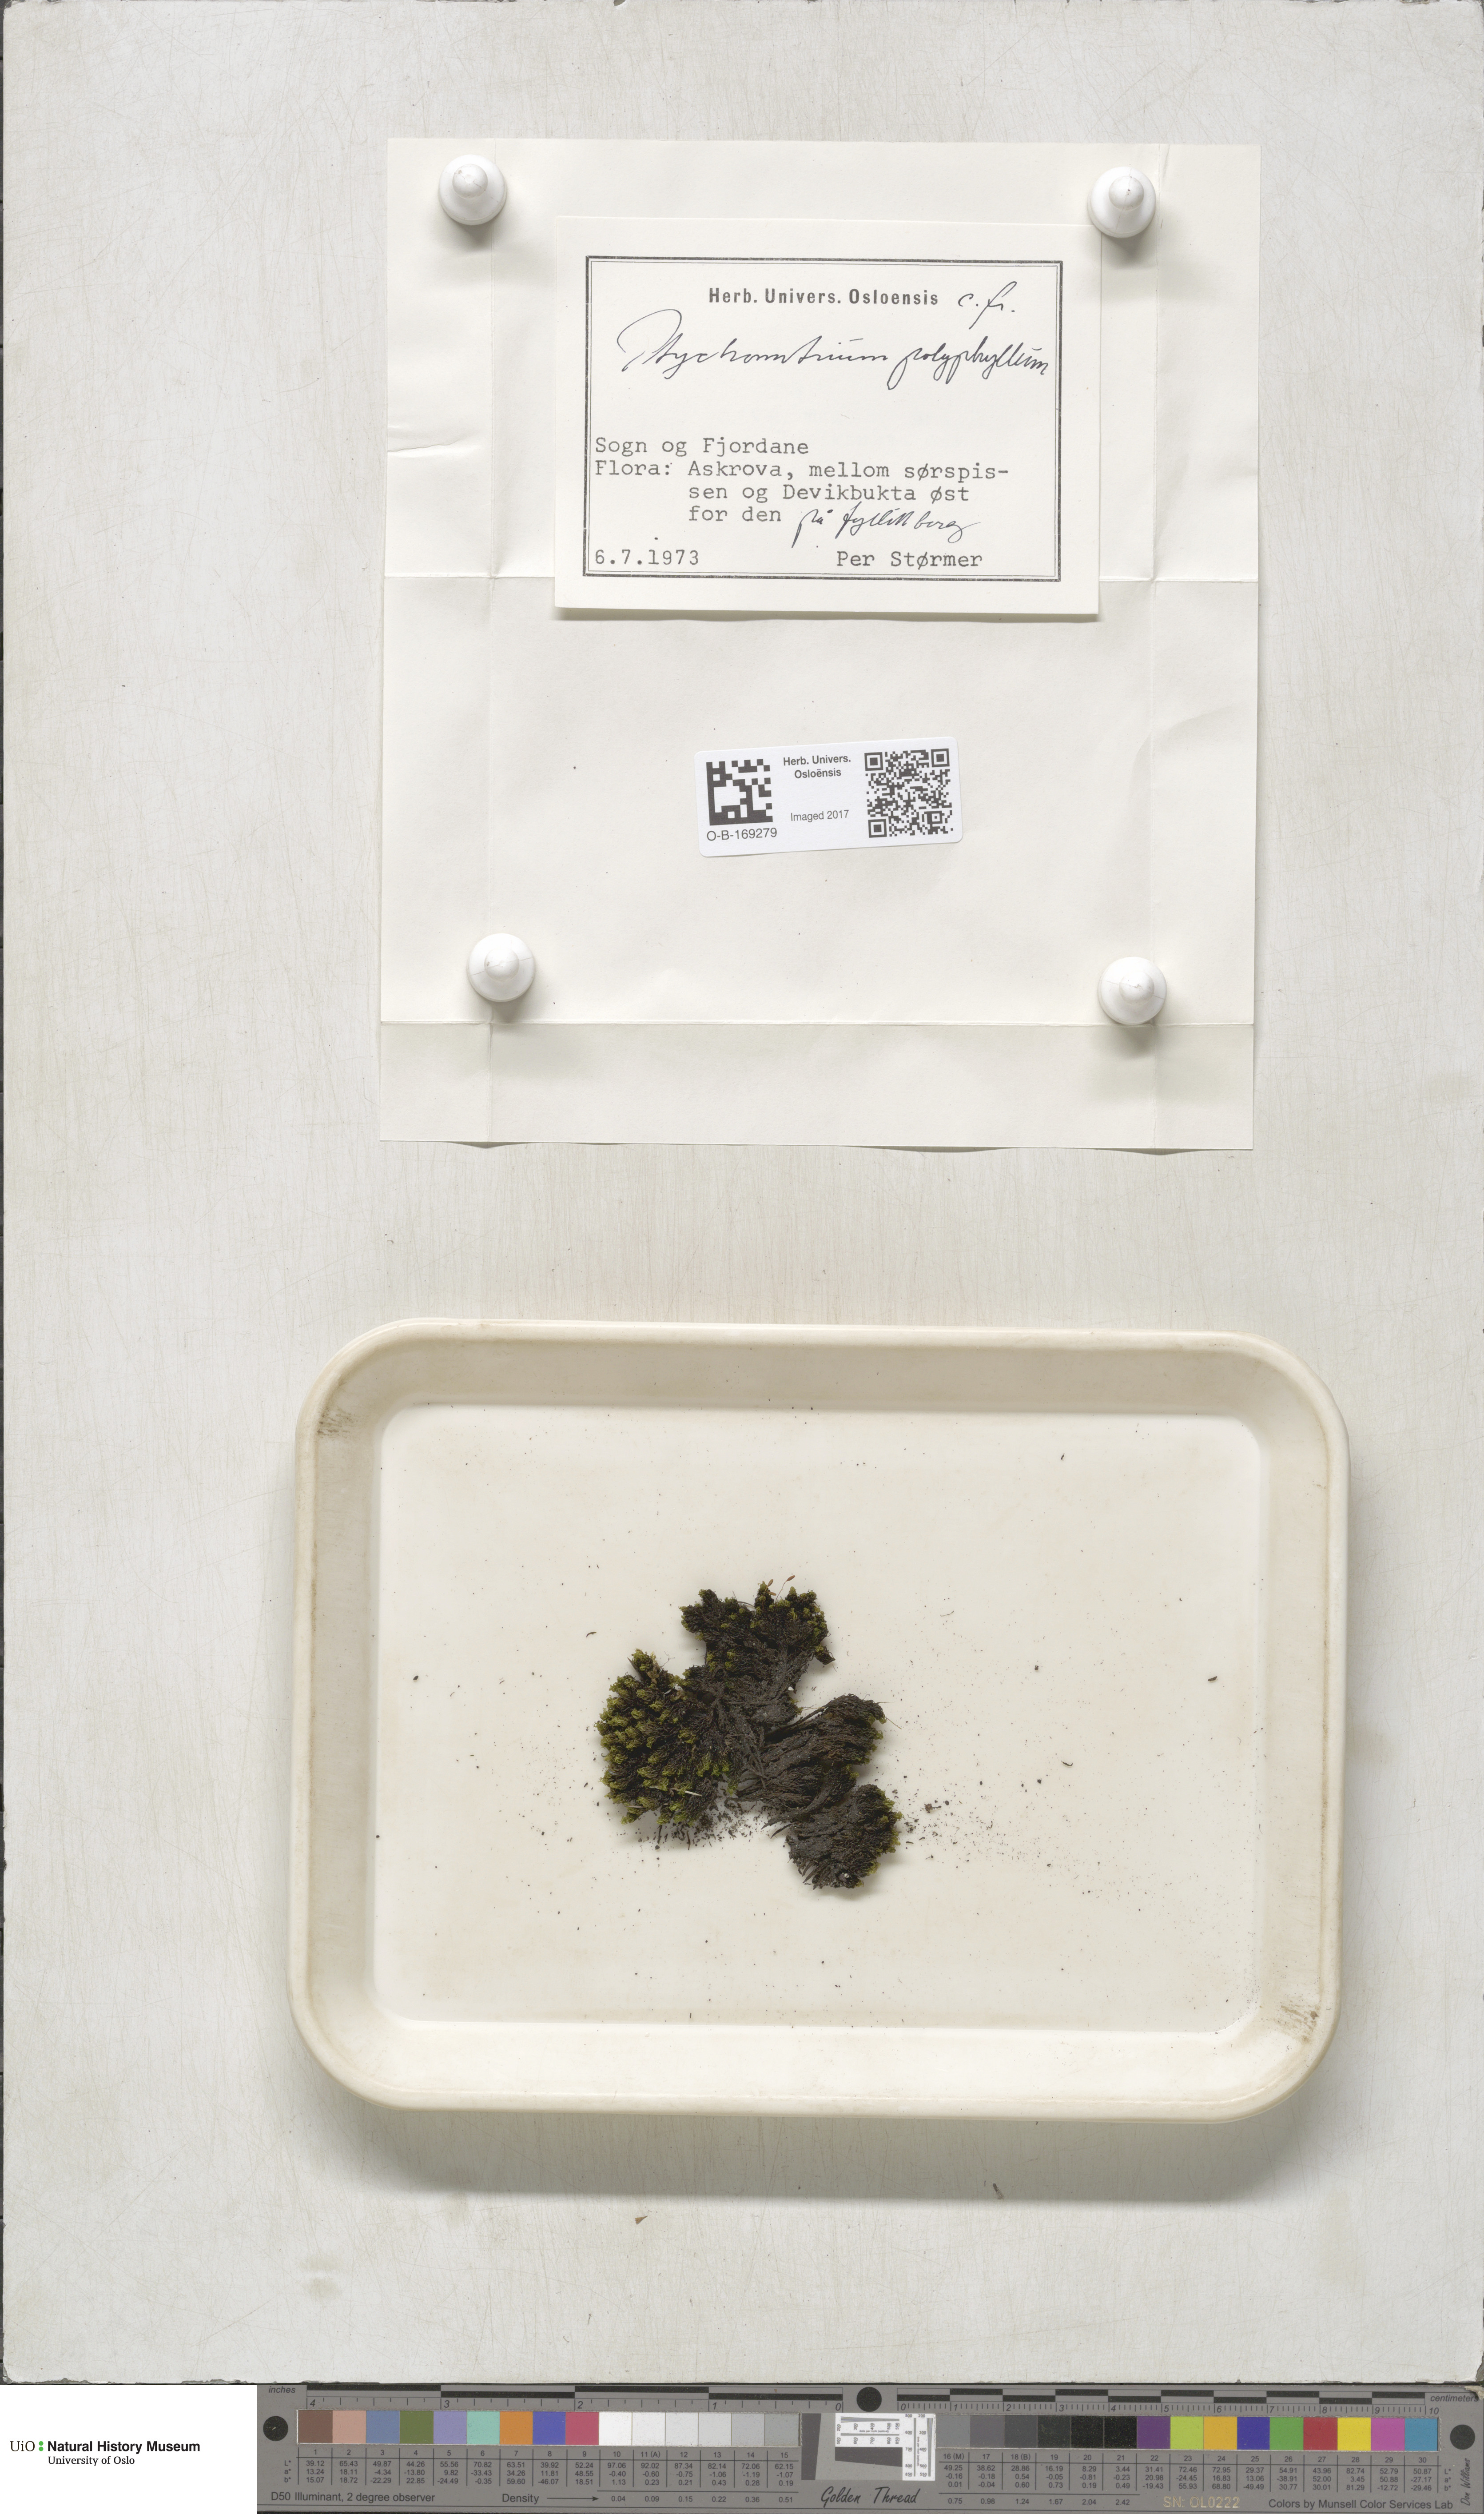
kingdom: Plantae
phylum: Bryophyta
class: Bryopsida
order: Grimmiales
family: Ptychomitriaceae
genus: Ptychomitrium
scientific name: Ptychomitrium polyphyllum
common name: Greater pincushion
